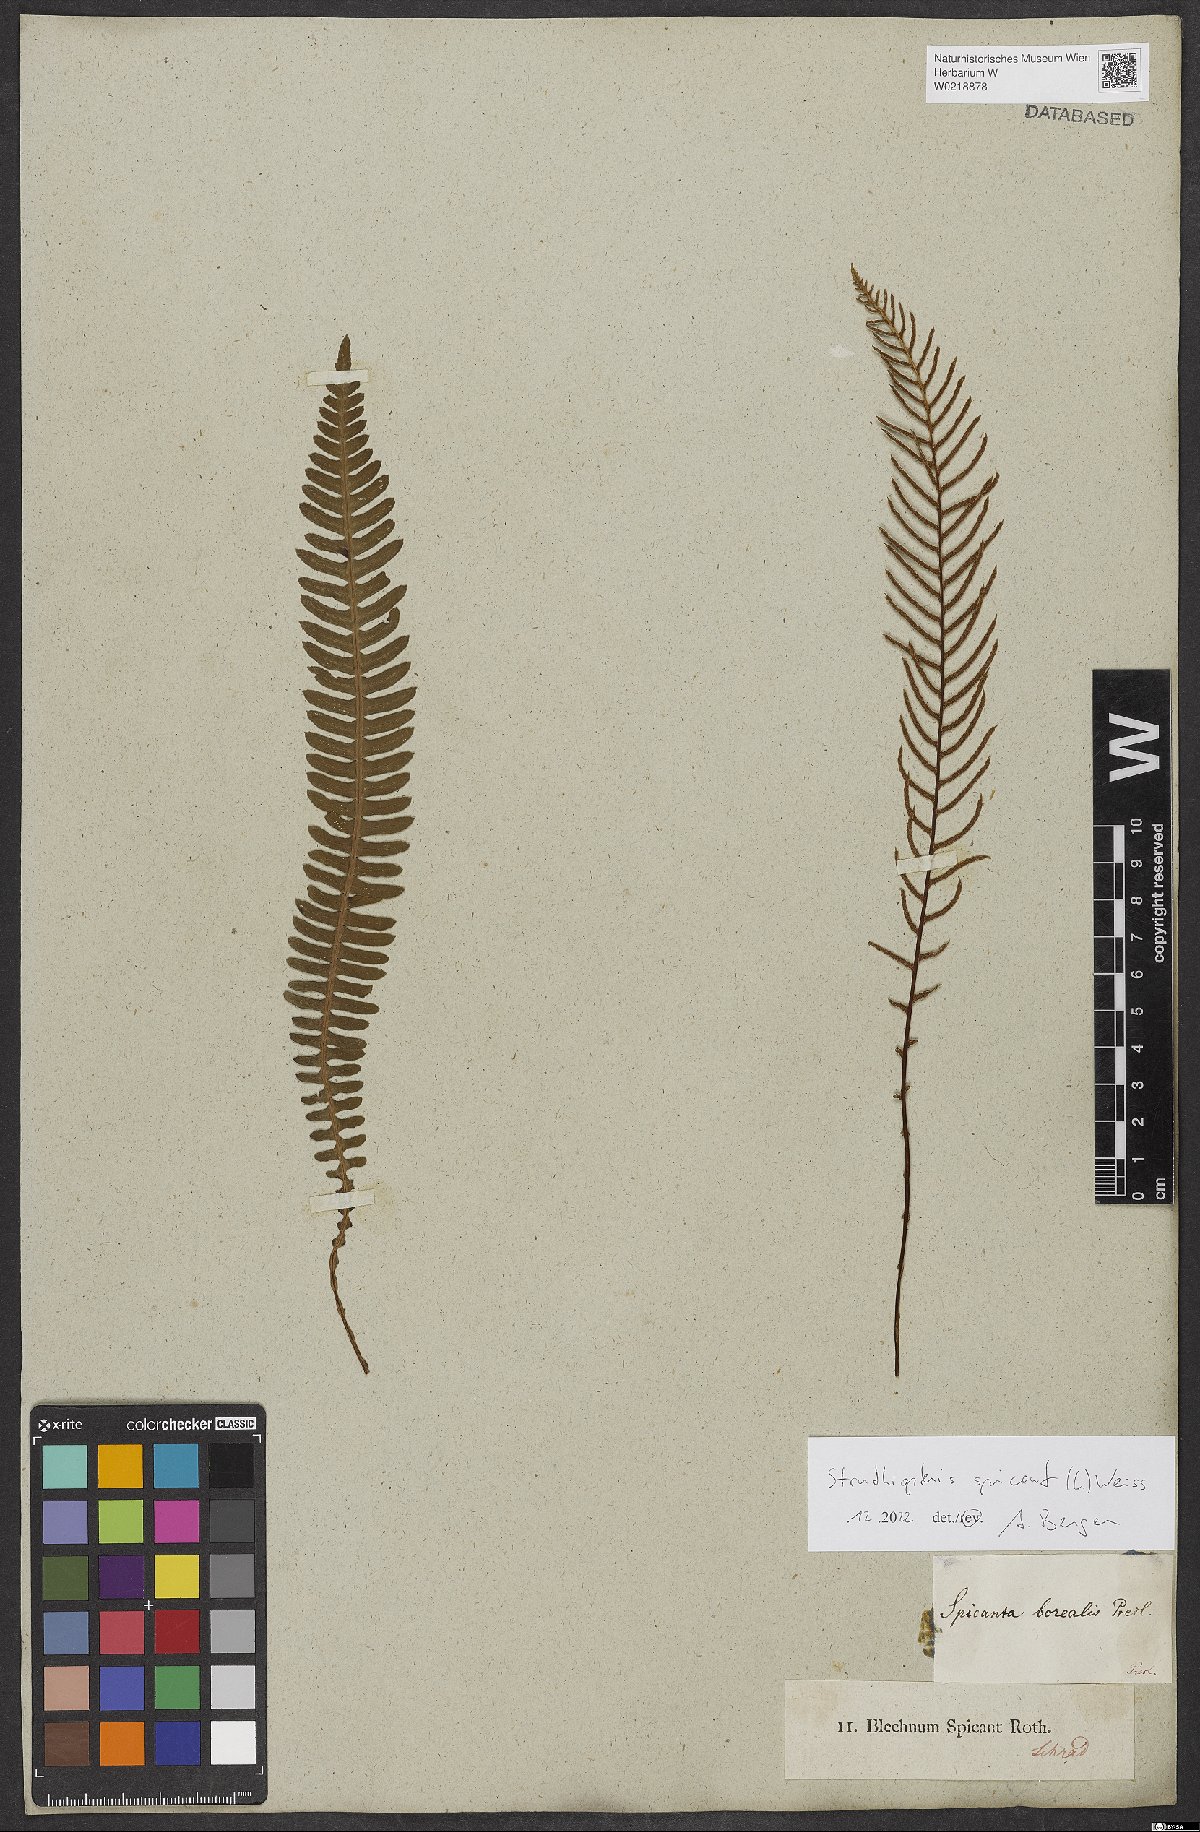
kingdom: Plantae
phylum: Tracheophyta
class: Polypodiopsida
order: Polypodiales
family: Blechnaceae
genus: Struthiopteris
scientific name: Struthiopteris spicant
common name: Deer fern
